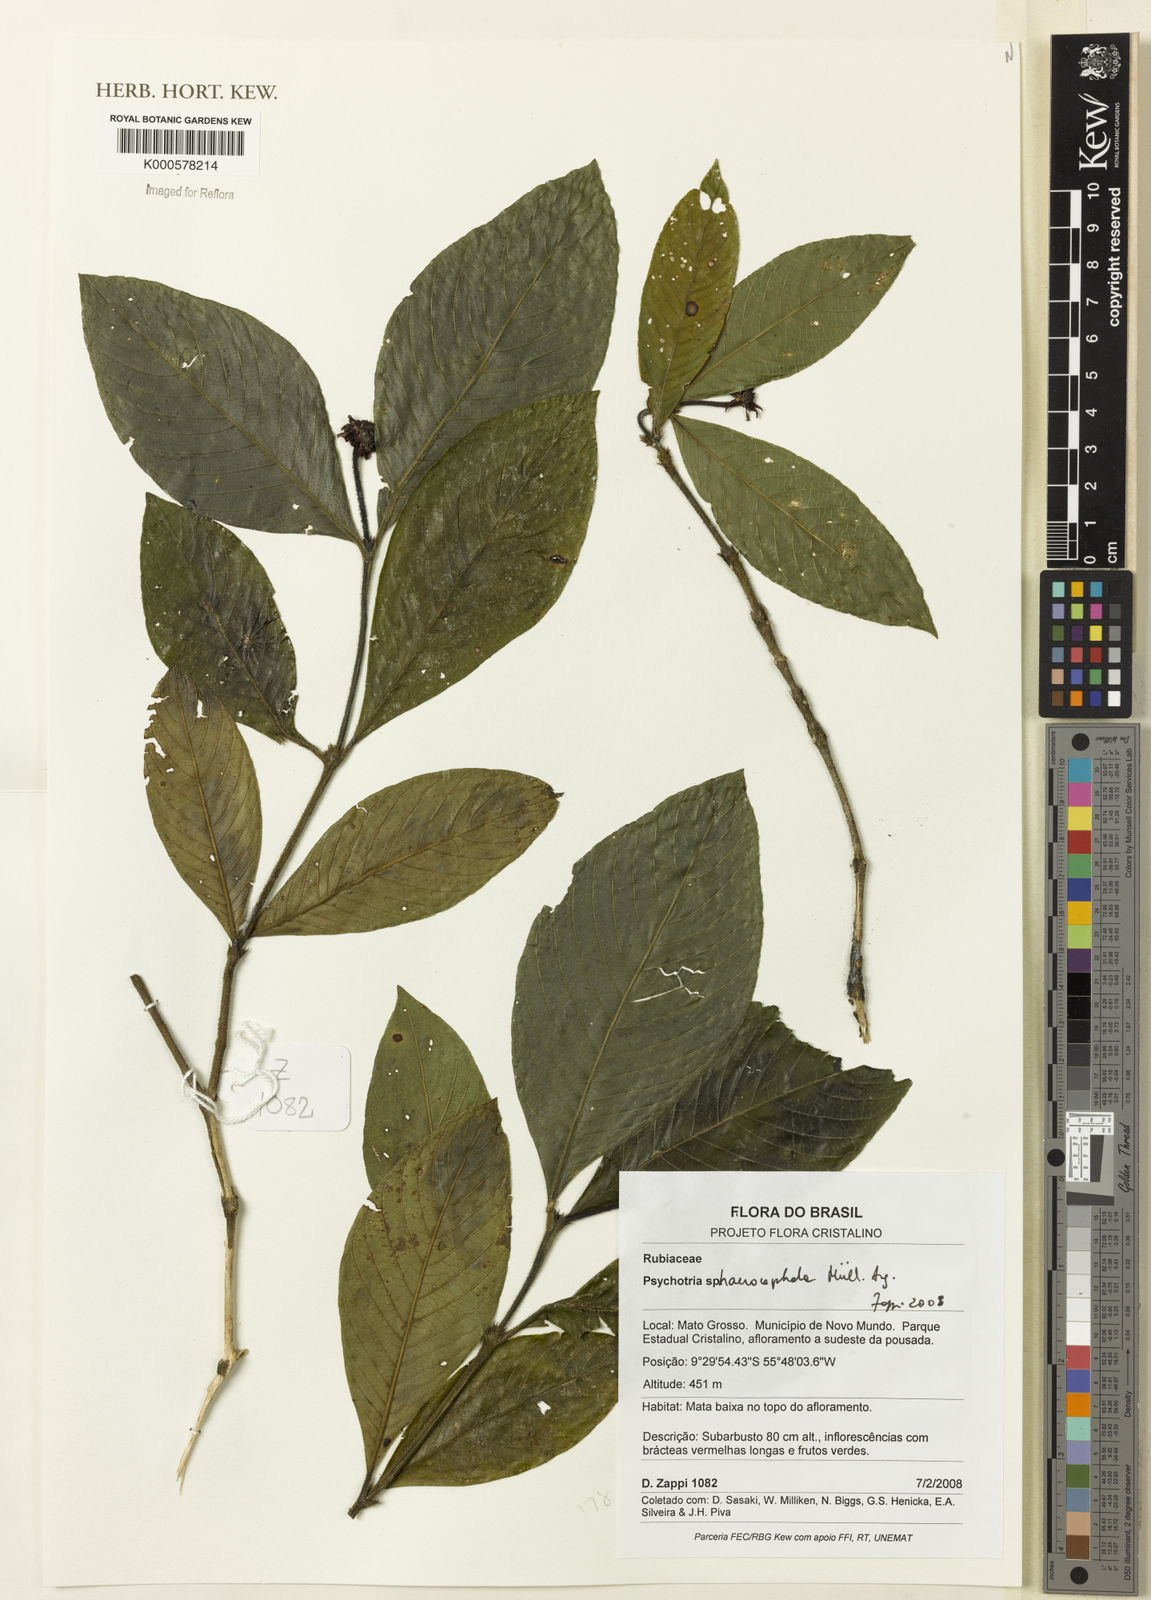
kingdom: Plantae
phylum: Tracheophyta
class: Magnoliopsida
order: Gentianales
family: Rubiaceae
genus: Psychotria
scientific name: Psychotria
